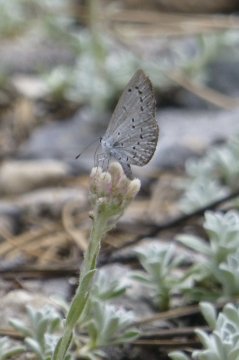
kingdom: Animalia
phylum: Arthropoda
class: Insecta
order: Lepidoptera
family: Lycaenidae
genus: Celastrina
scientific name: Celastrina ladon
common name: Echo Azure
